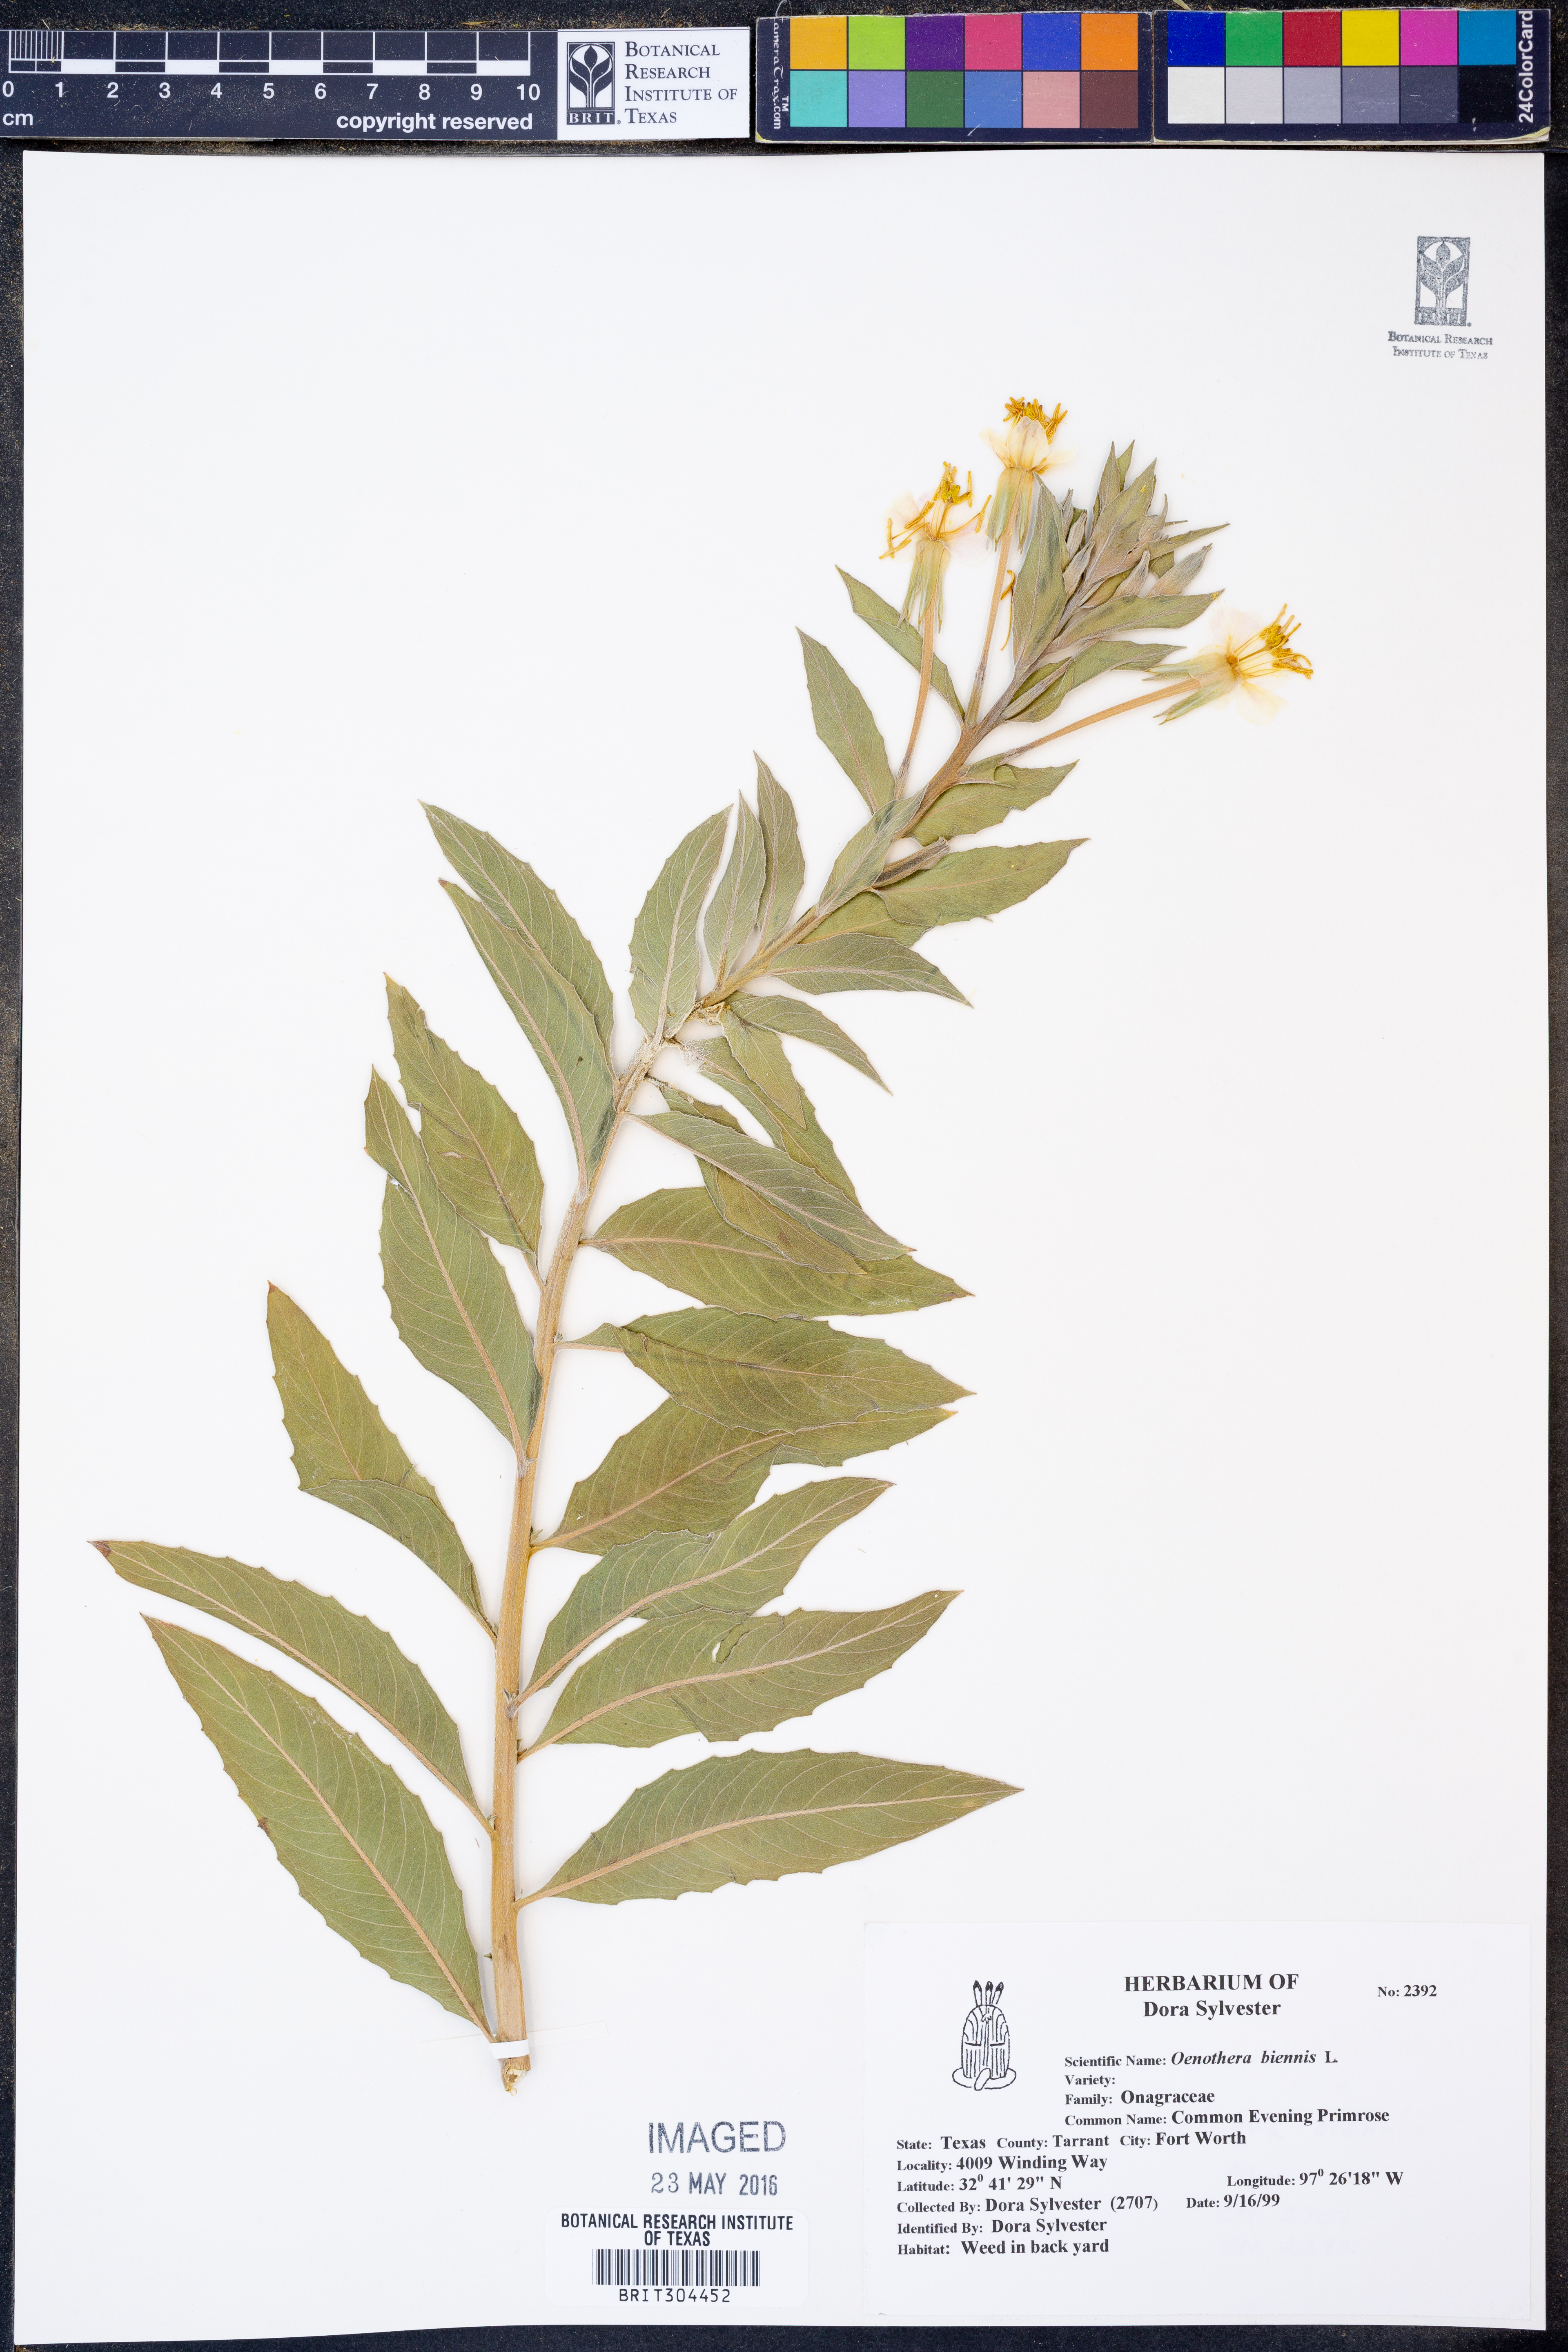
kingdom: Plantae
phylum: Tracheophyta
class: Magnoliopsida
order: Myrtales
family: Onagraceae
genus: Oenothera
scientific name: Oenothera biennis
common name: Common evening-primrose
